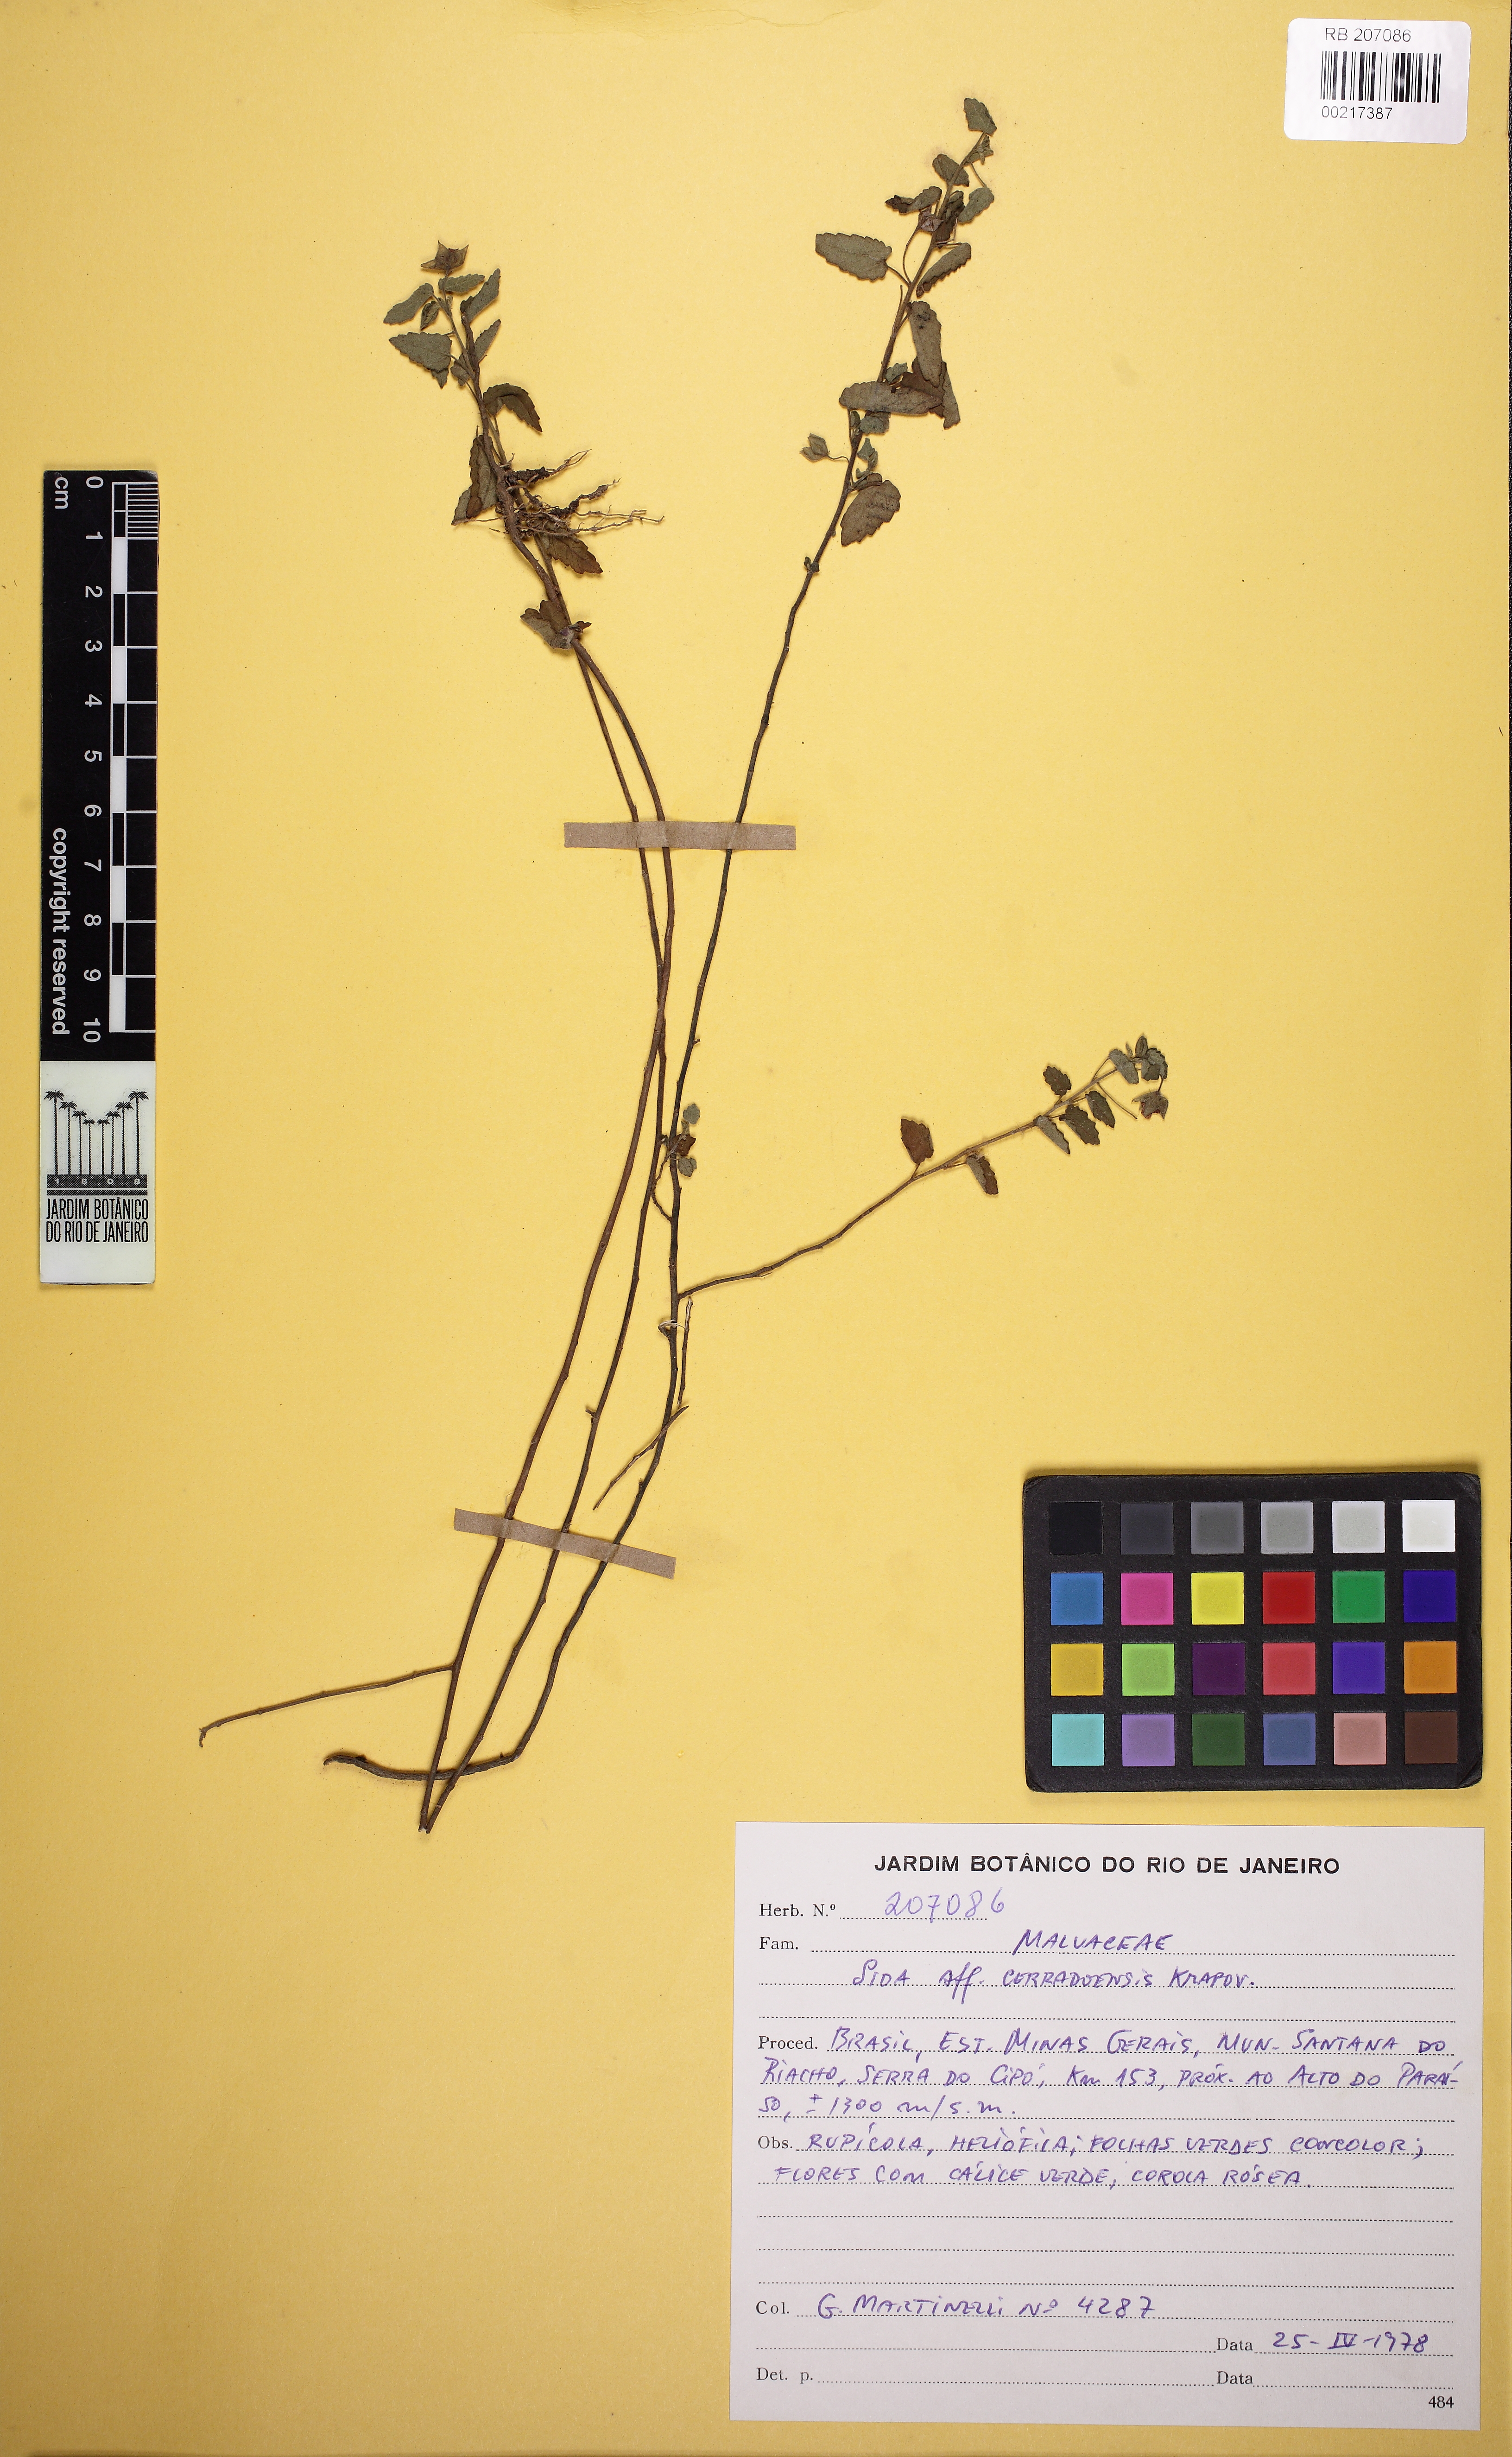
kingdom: Plantae
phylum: Tracheophyta
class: Magnoliopsida
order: Malvales
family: Malvaceae
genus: Sida
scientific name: Sida cerradoensis
